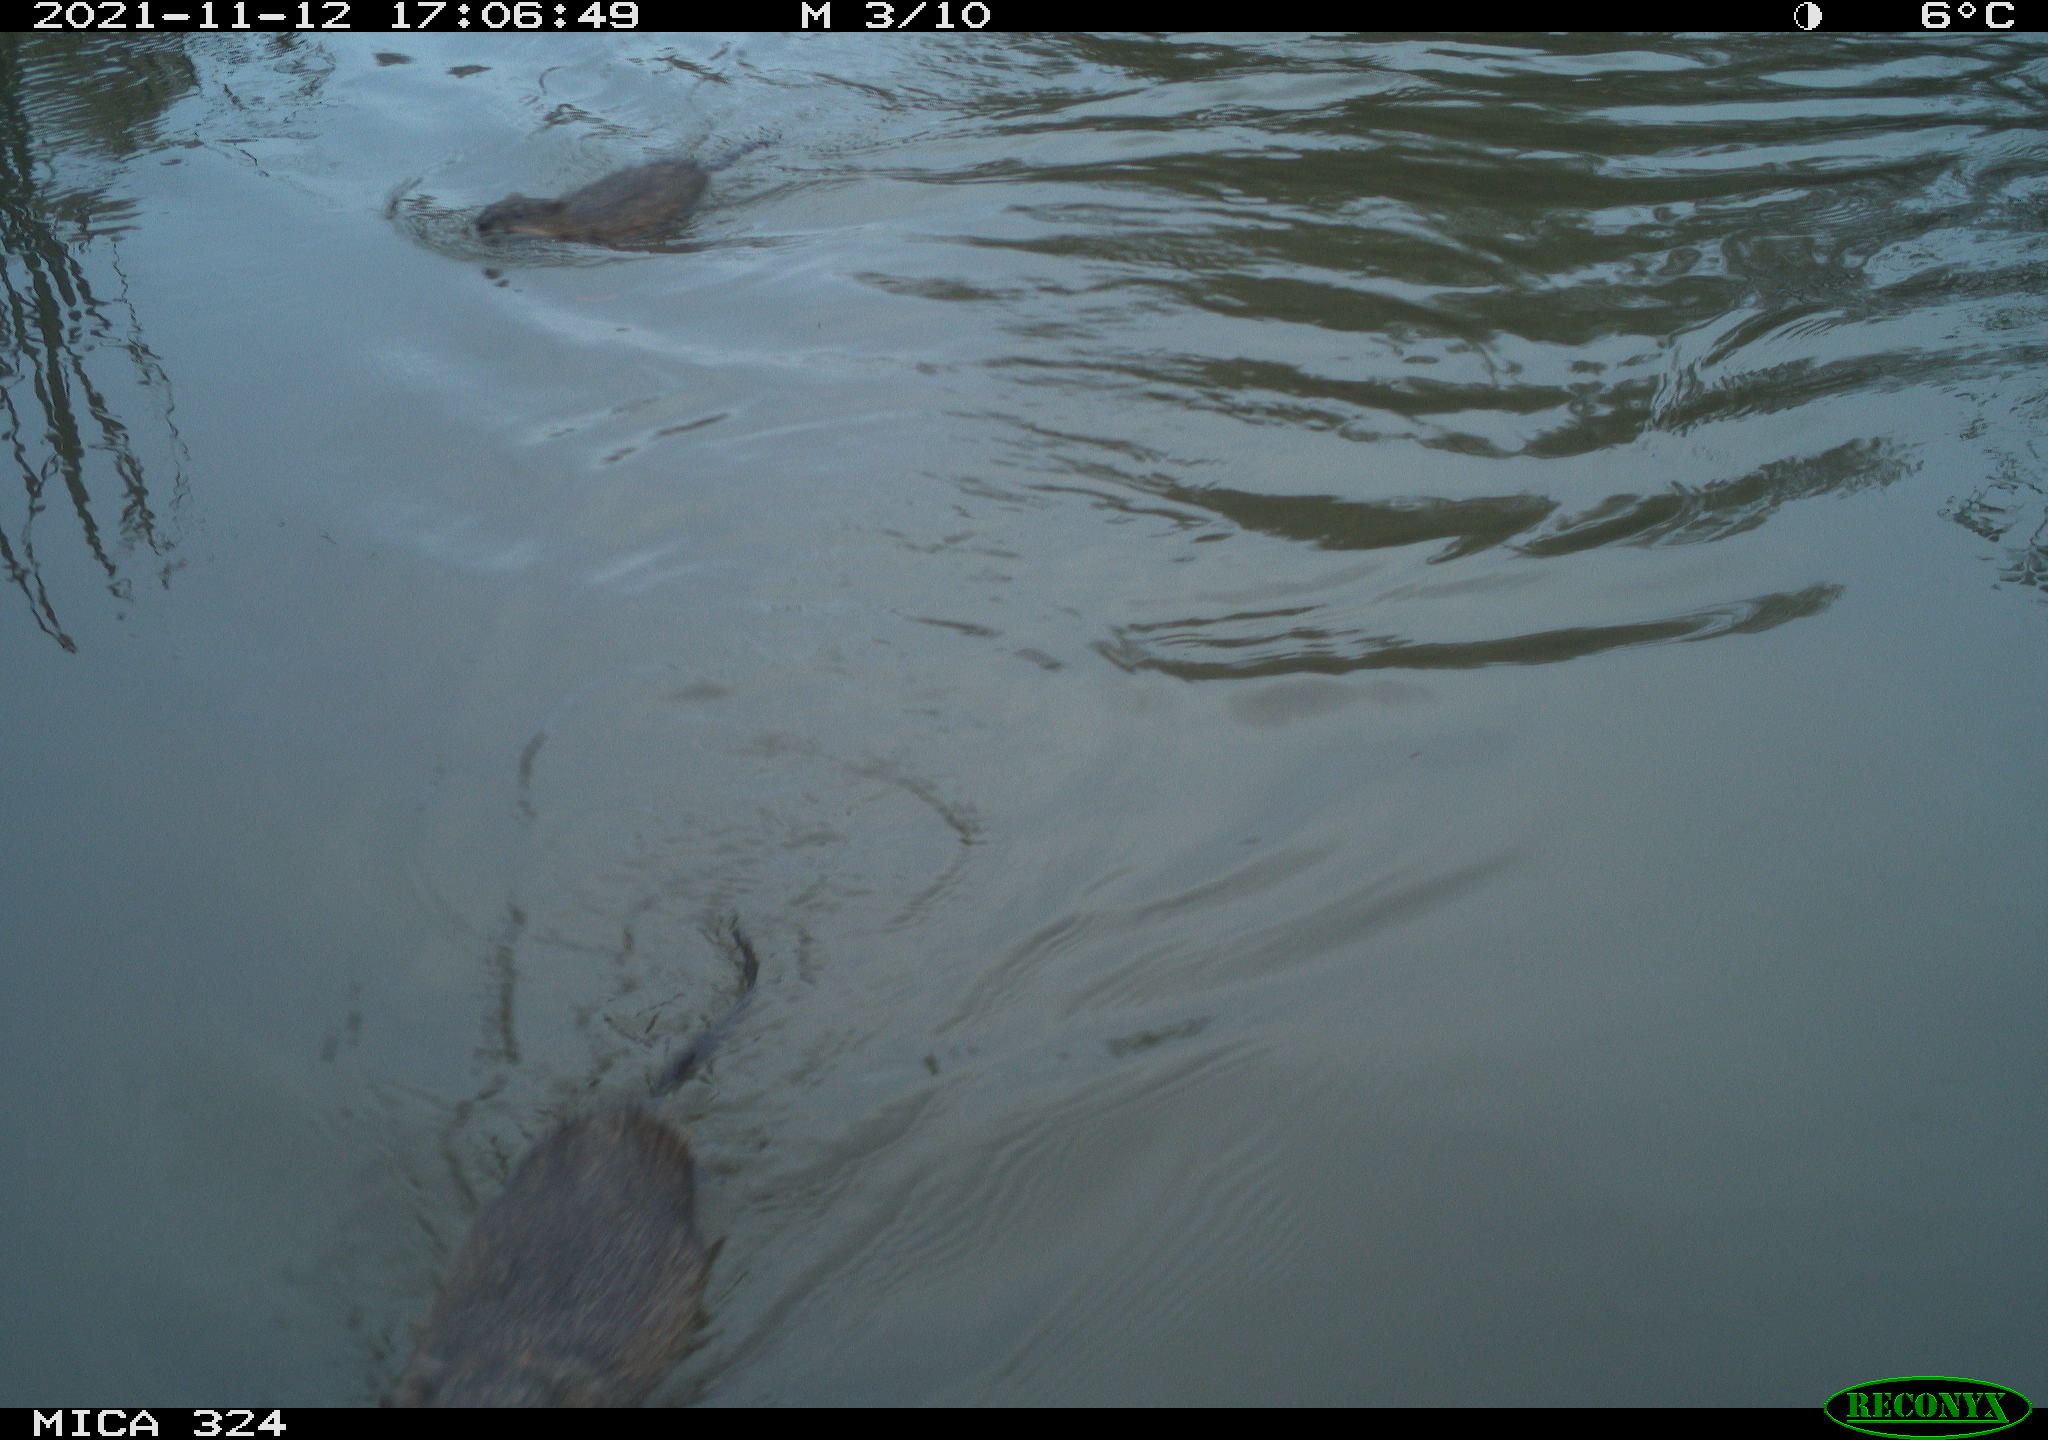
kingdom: Animalia
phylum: Chordata
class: Mammalia
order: Rodentia
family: Cricetidae
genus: Ondatra
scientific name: Ondatra zibethicus
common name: Muskrat
